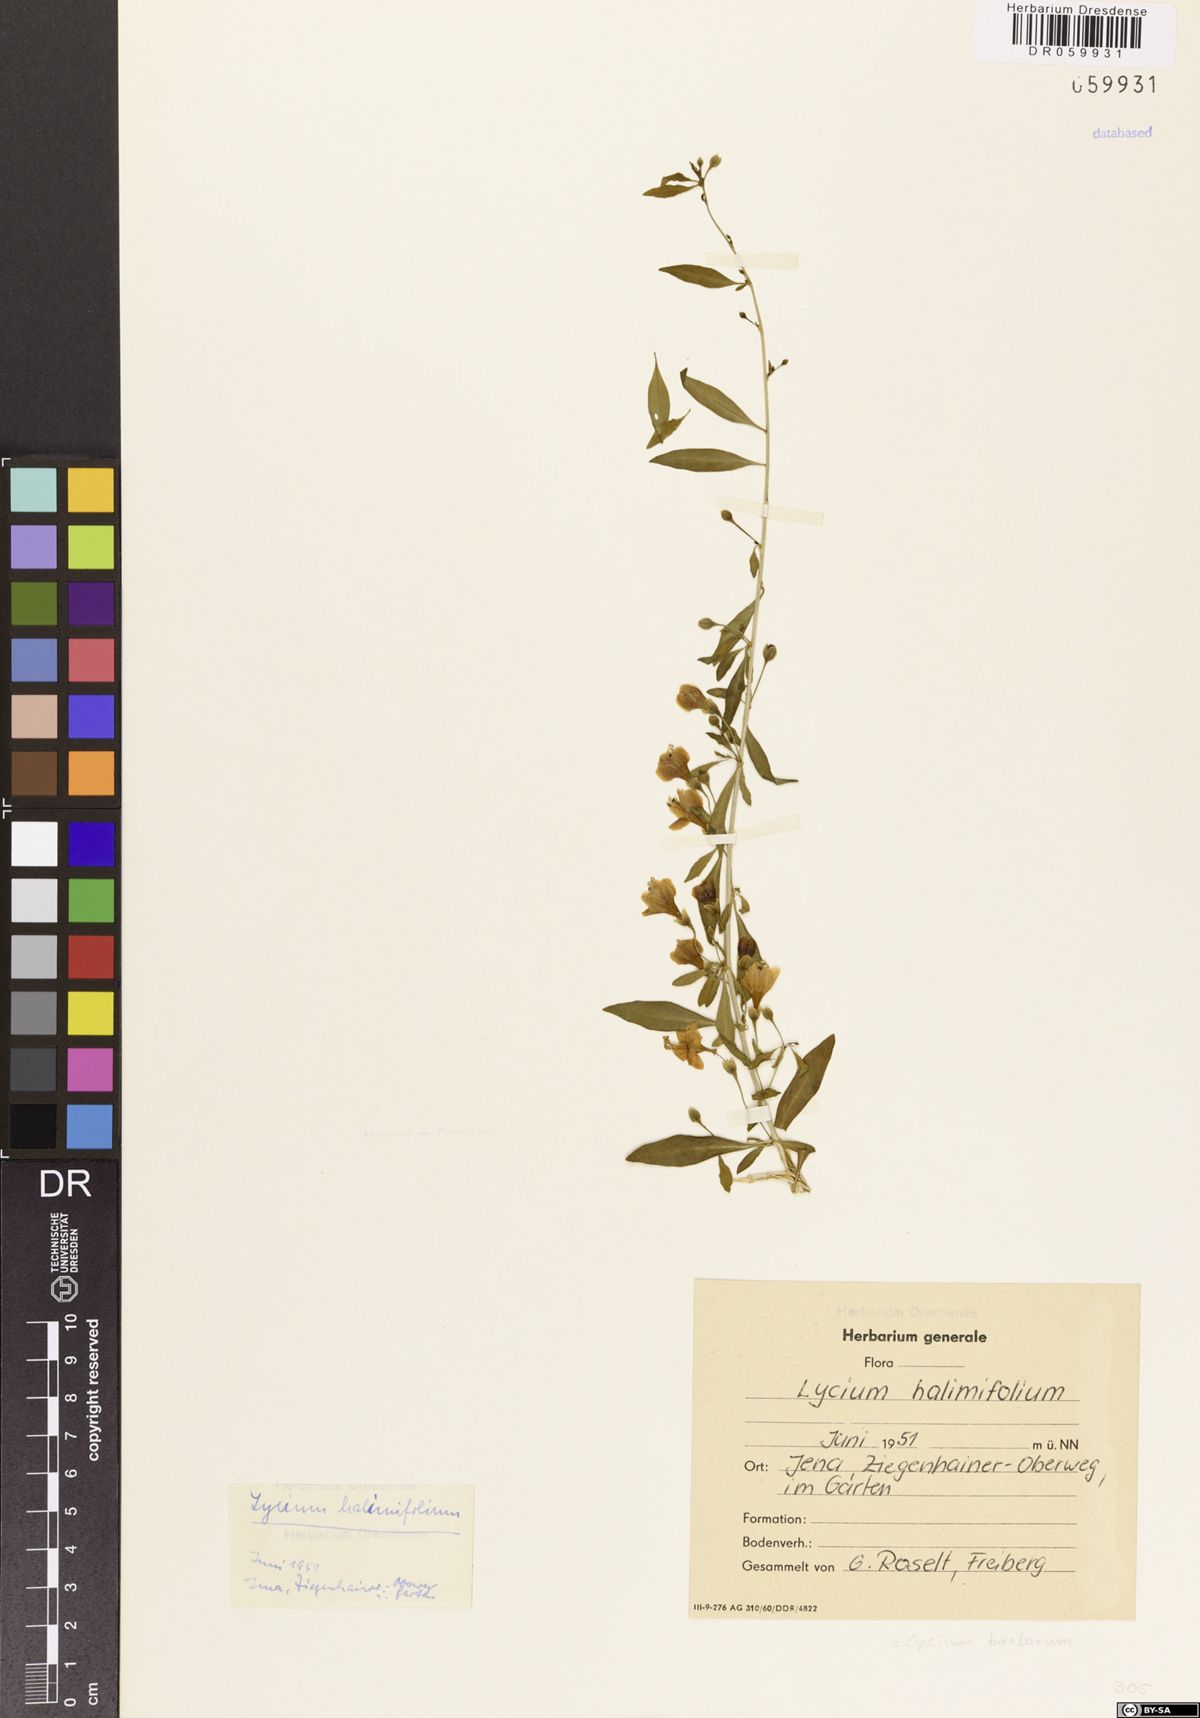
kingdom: Plantae
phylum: Tracheophyta
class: Magnoliopsida
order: Solanales
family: Solanaceae
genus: Lycium
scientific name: Lycium barbarum
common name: Duke of argyll's teaplant
